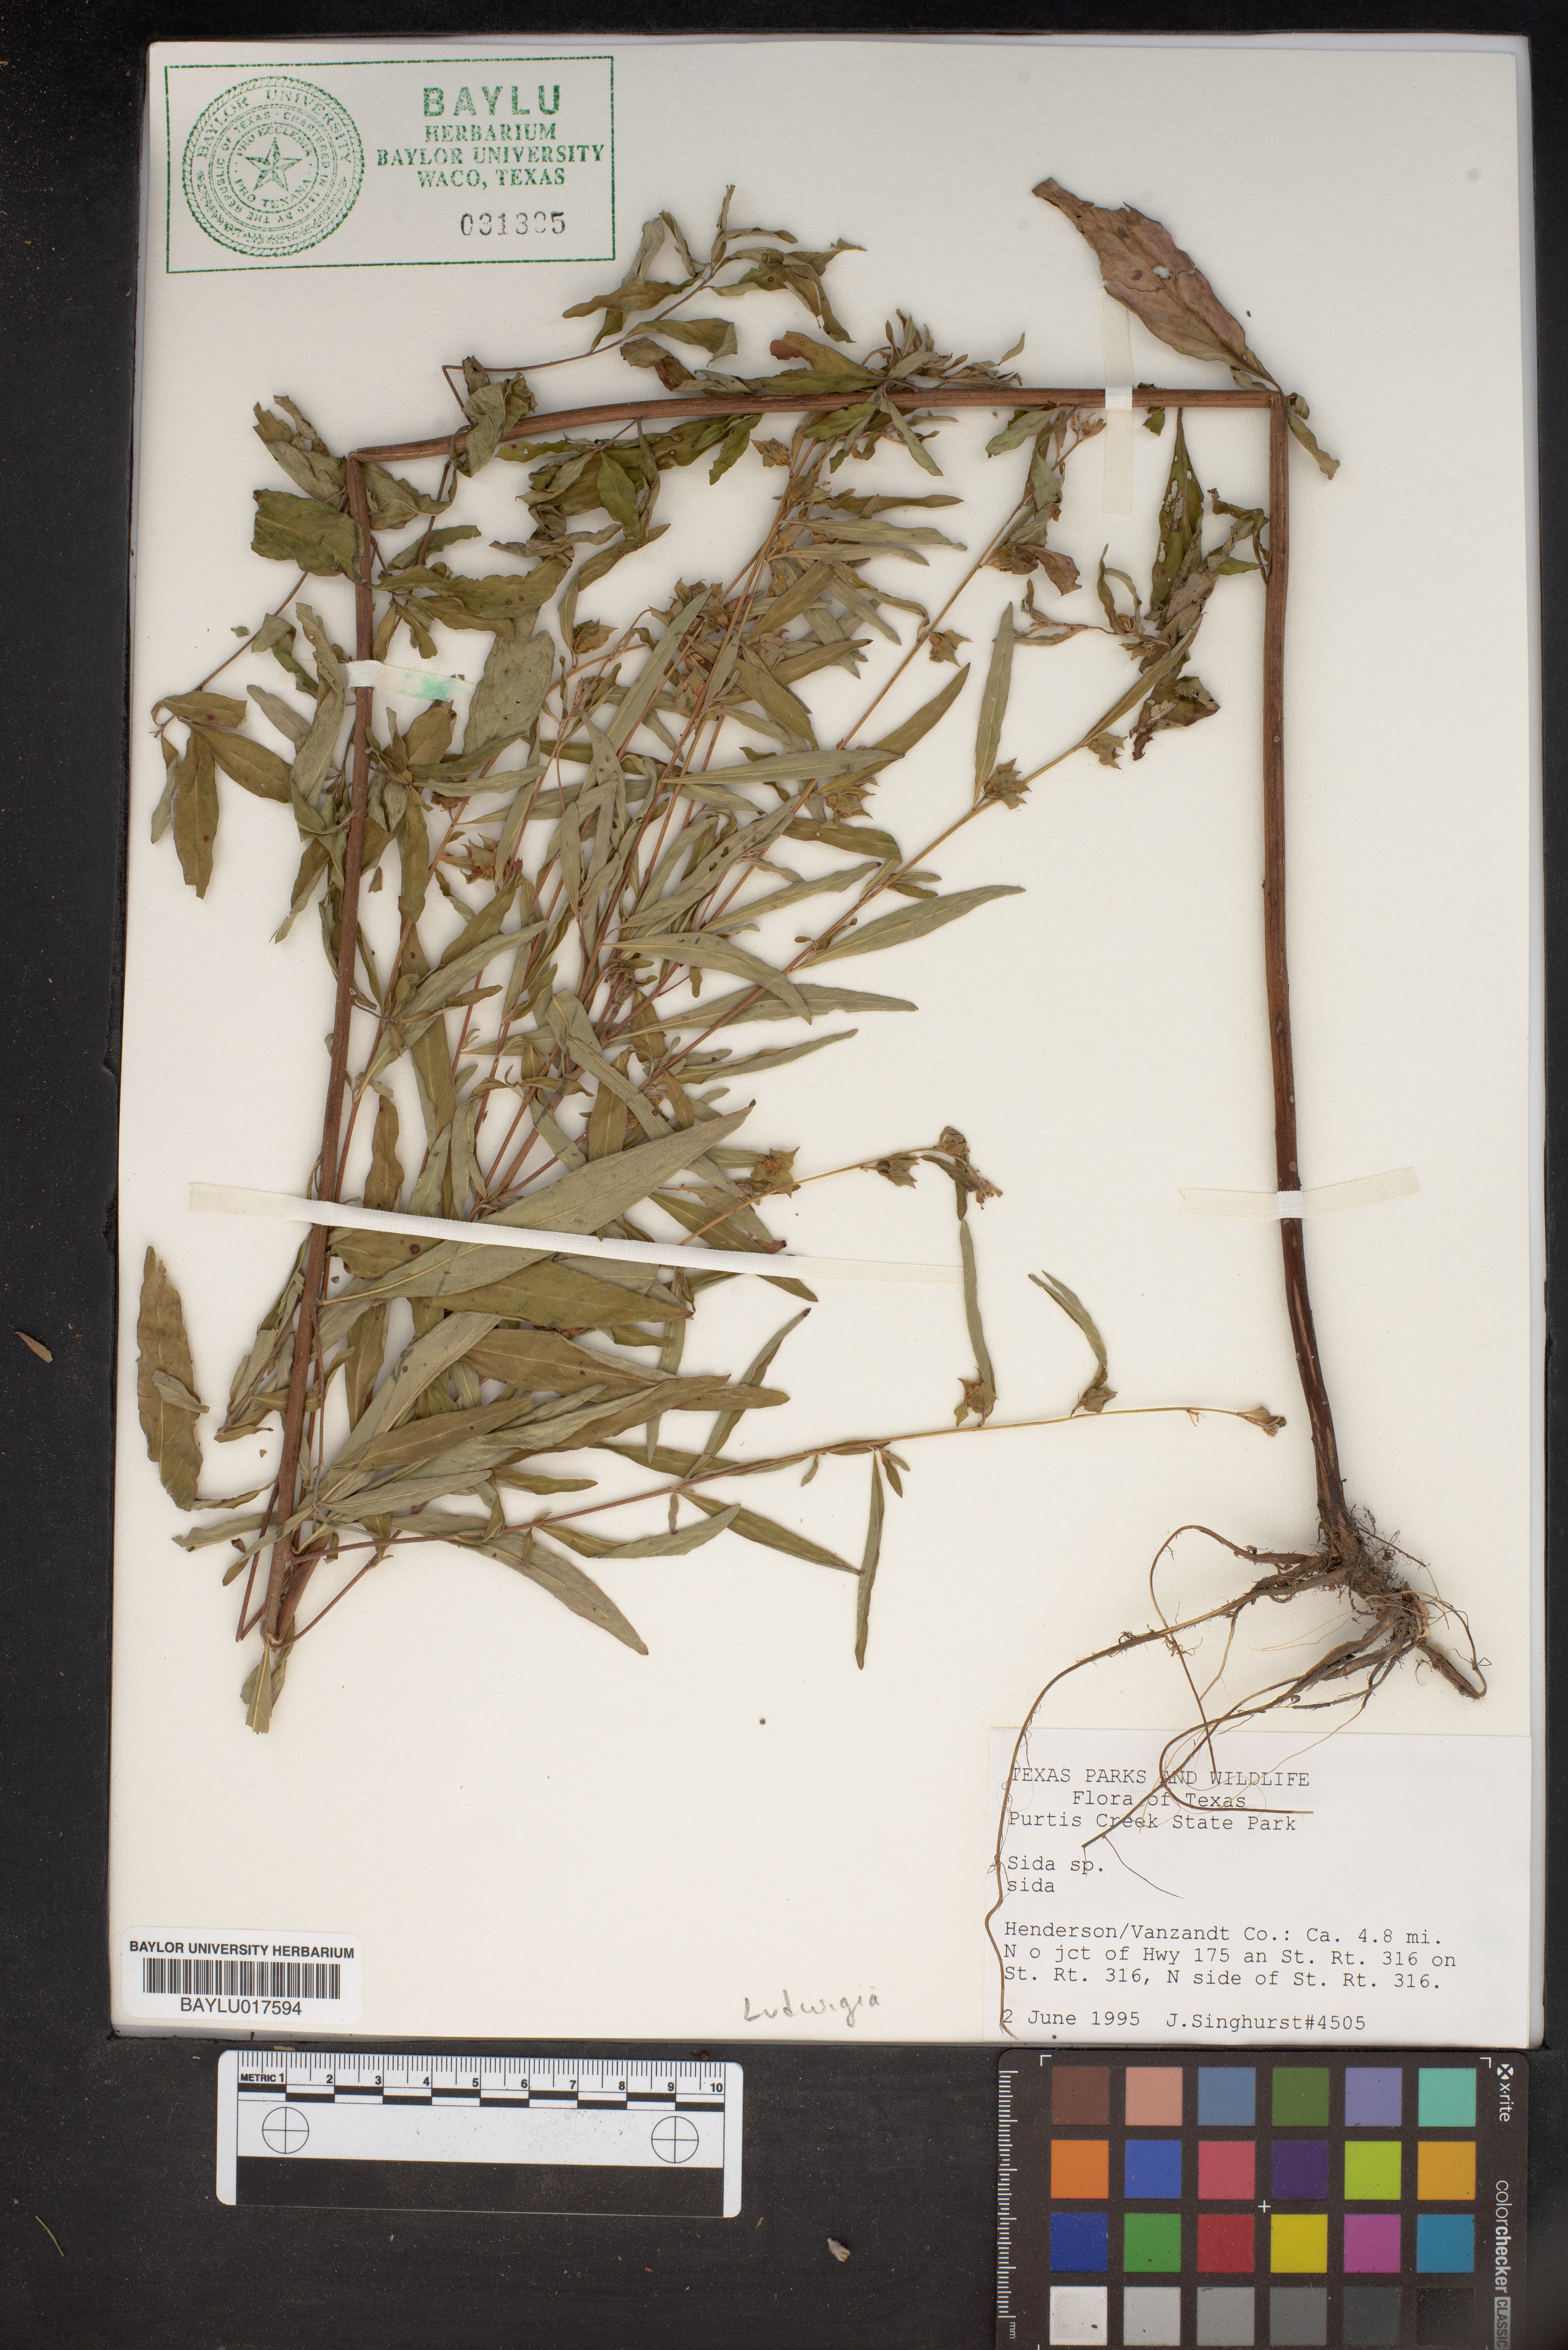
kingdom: Plantae
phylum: Tracheophyta
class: Magnoliopsida
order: Malvales
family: Malvaceae
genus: Sida
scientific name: Sida
